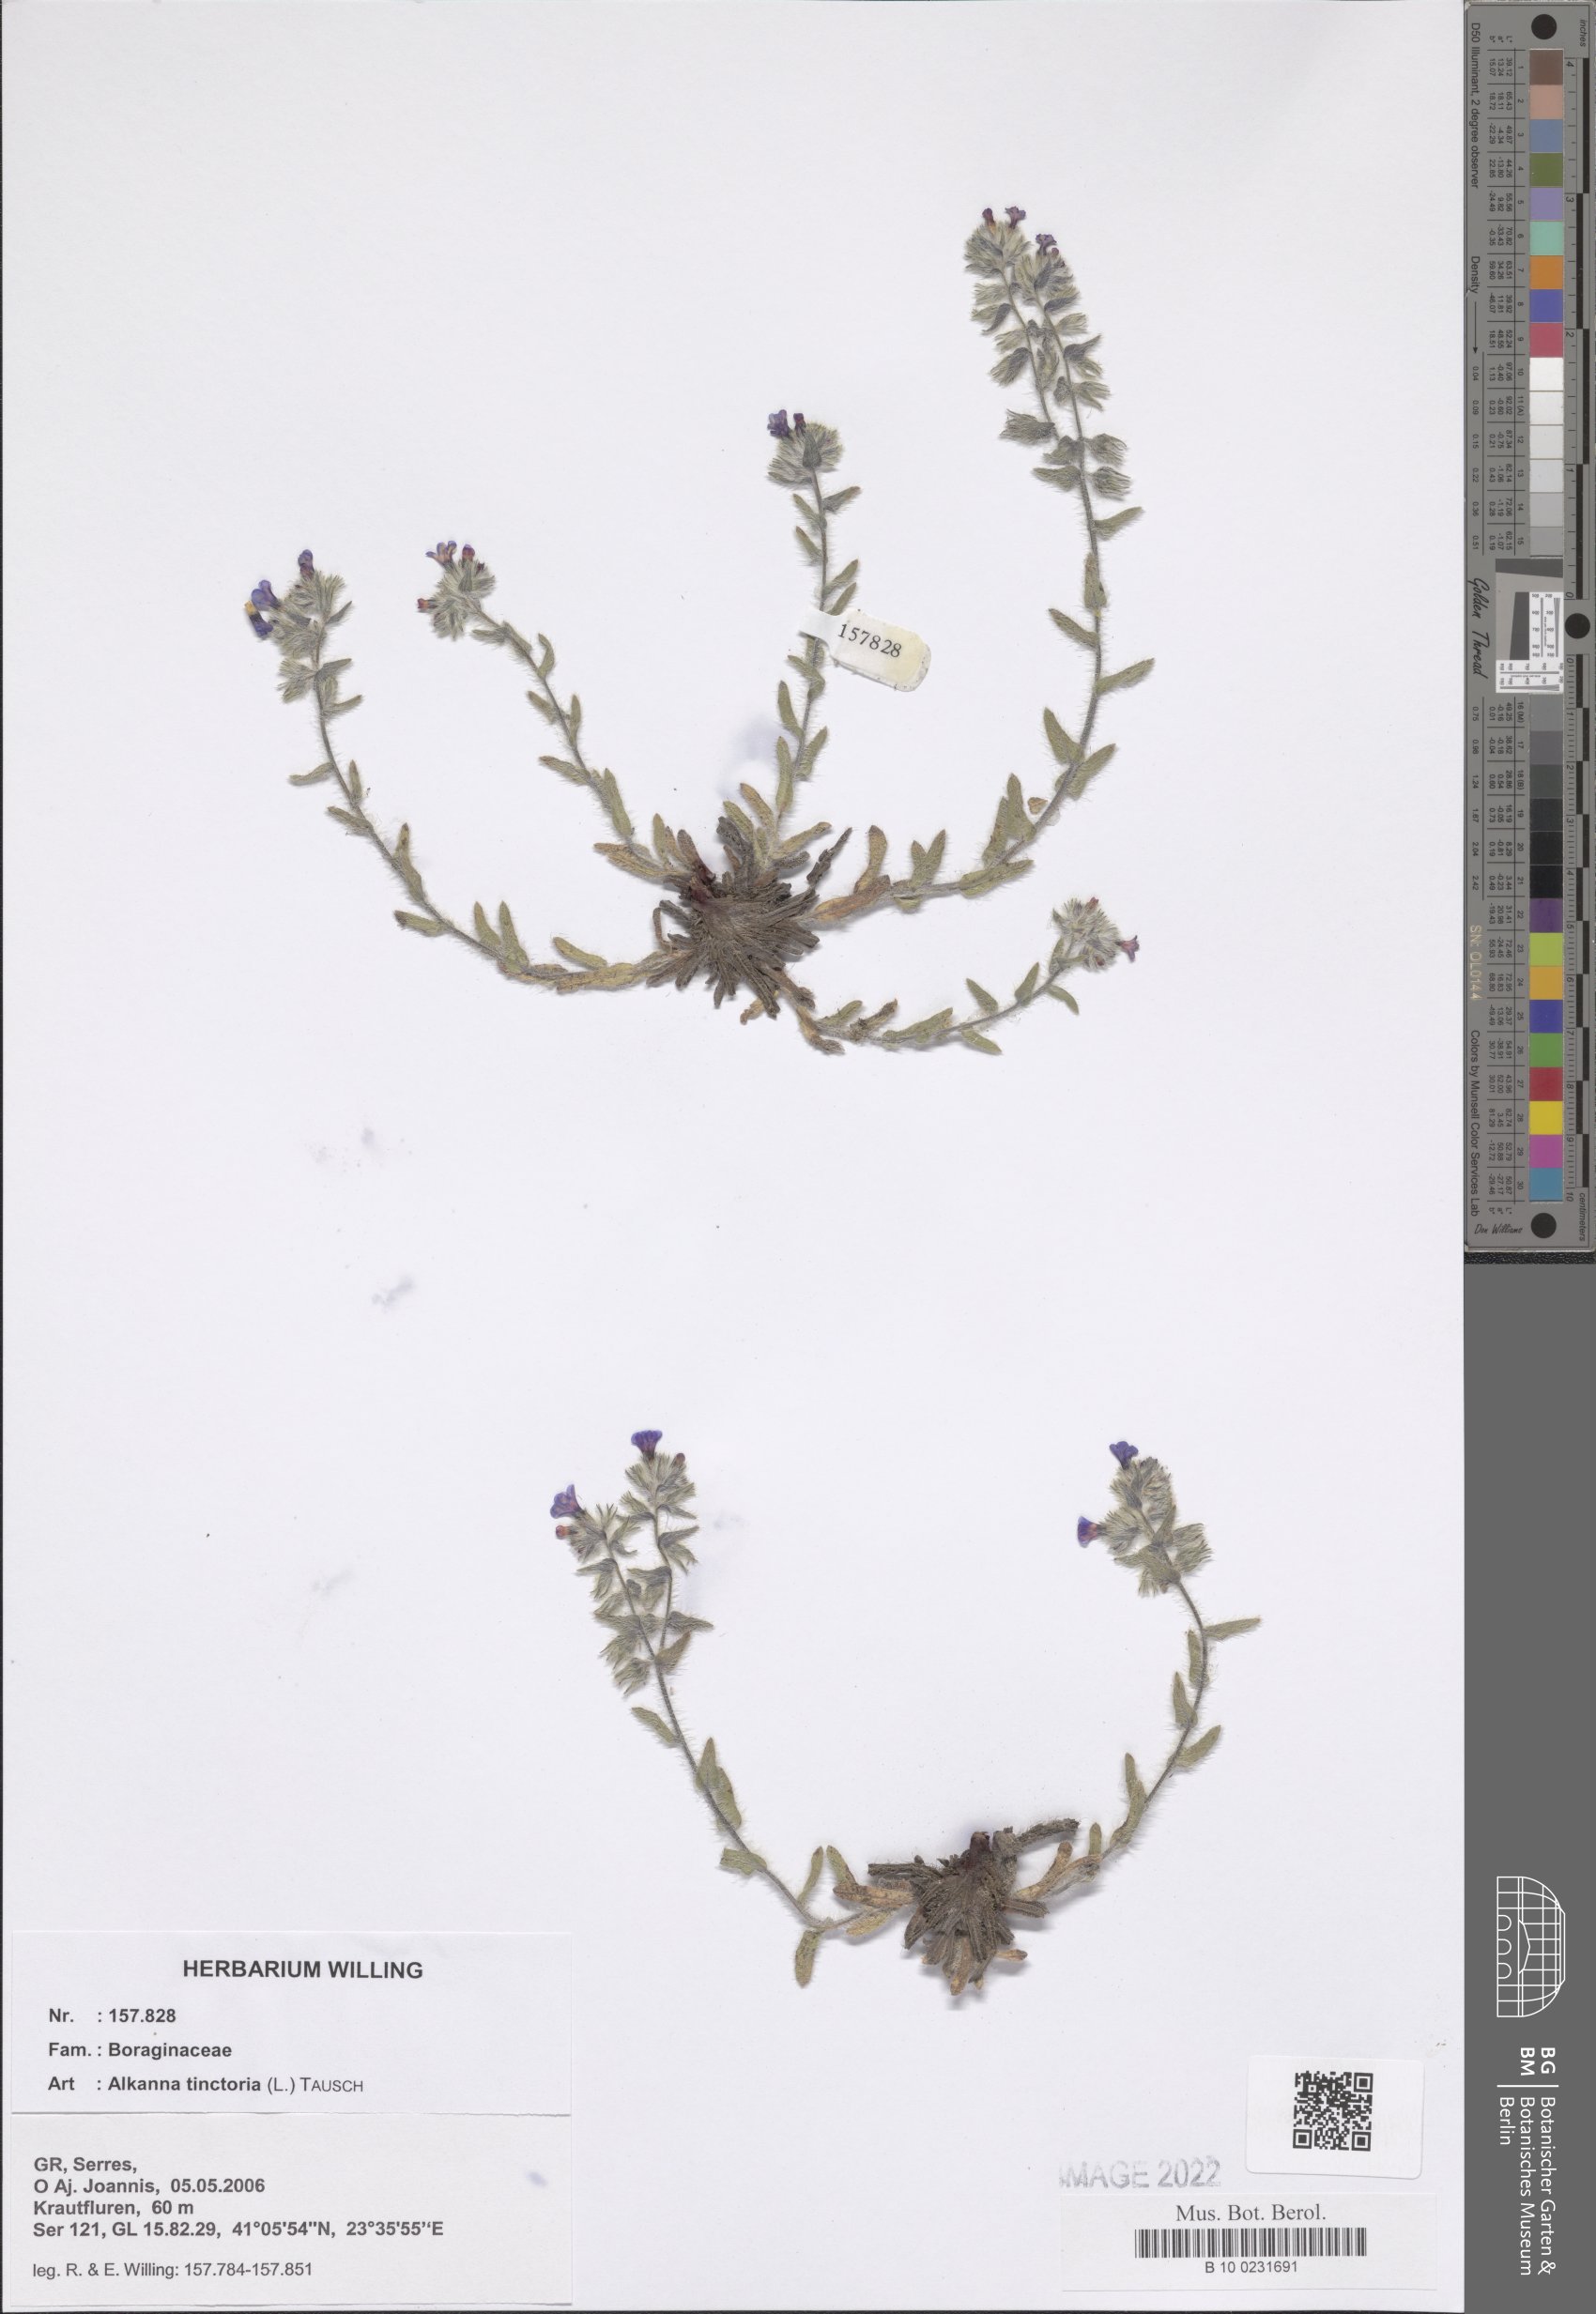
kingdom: Plantae
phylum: Tracheophyta
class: Magnoliopsida
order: Boraginales
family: Boraginaceae
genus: Alkanna
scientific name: Alkanna tinctoria
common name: Dyer's-alkanet
